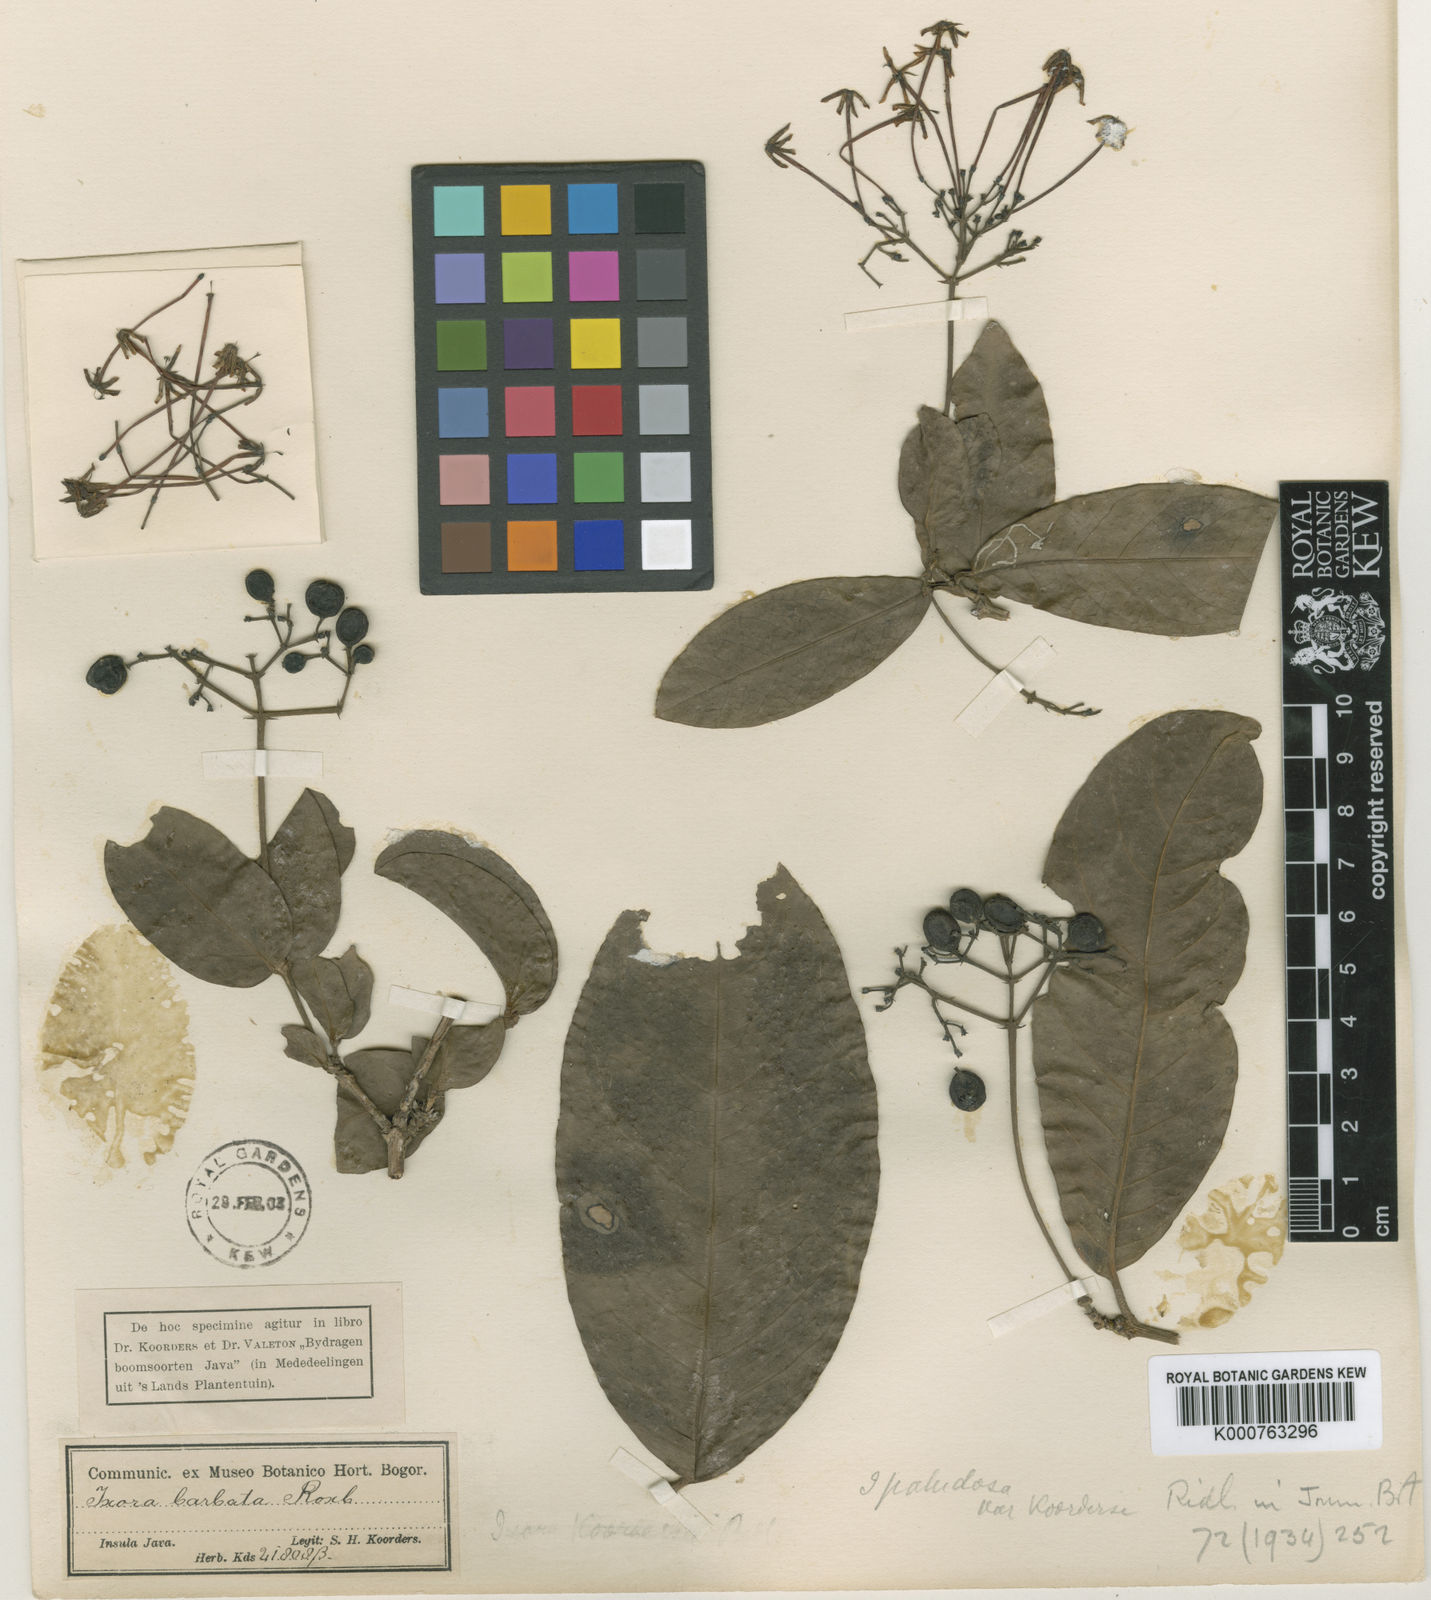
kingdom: Plantae
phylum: Tracheophyta
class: Magnoliopsida
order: Gentianales
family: Rubiaceae
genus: Ixora
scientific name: Ixora koordersii
